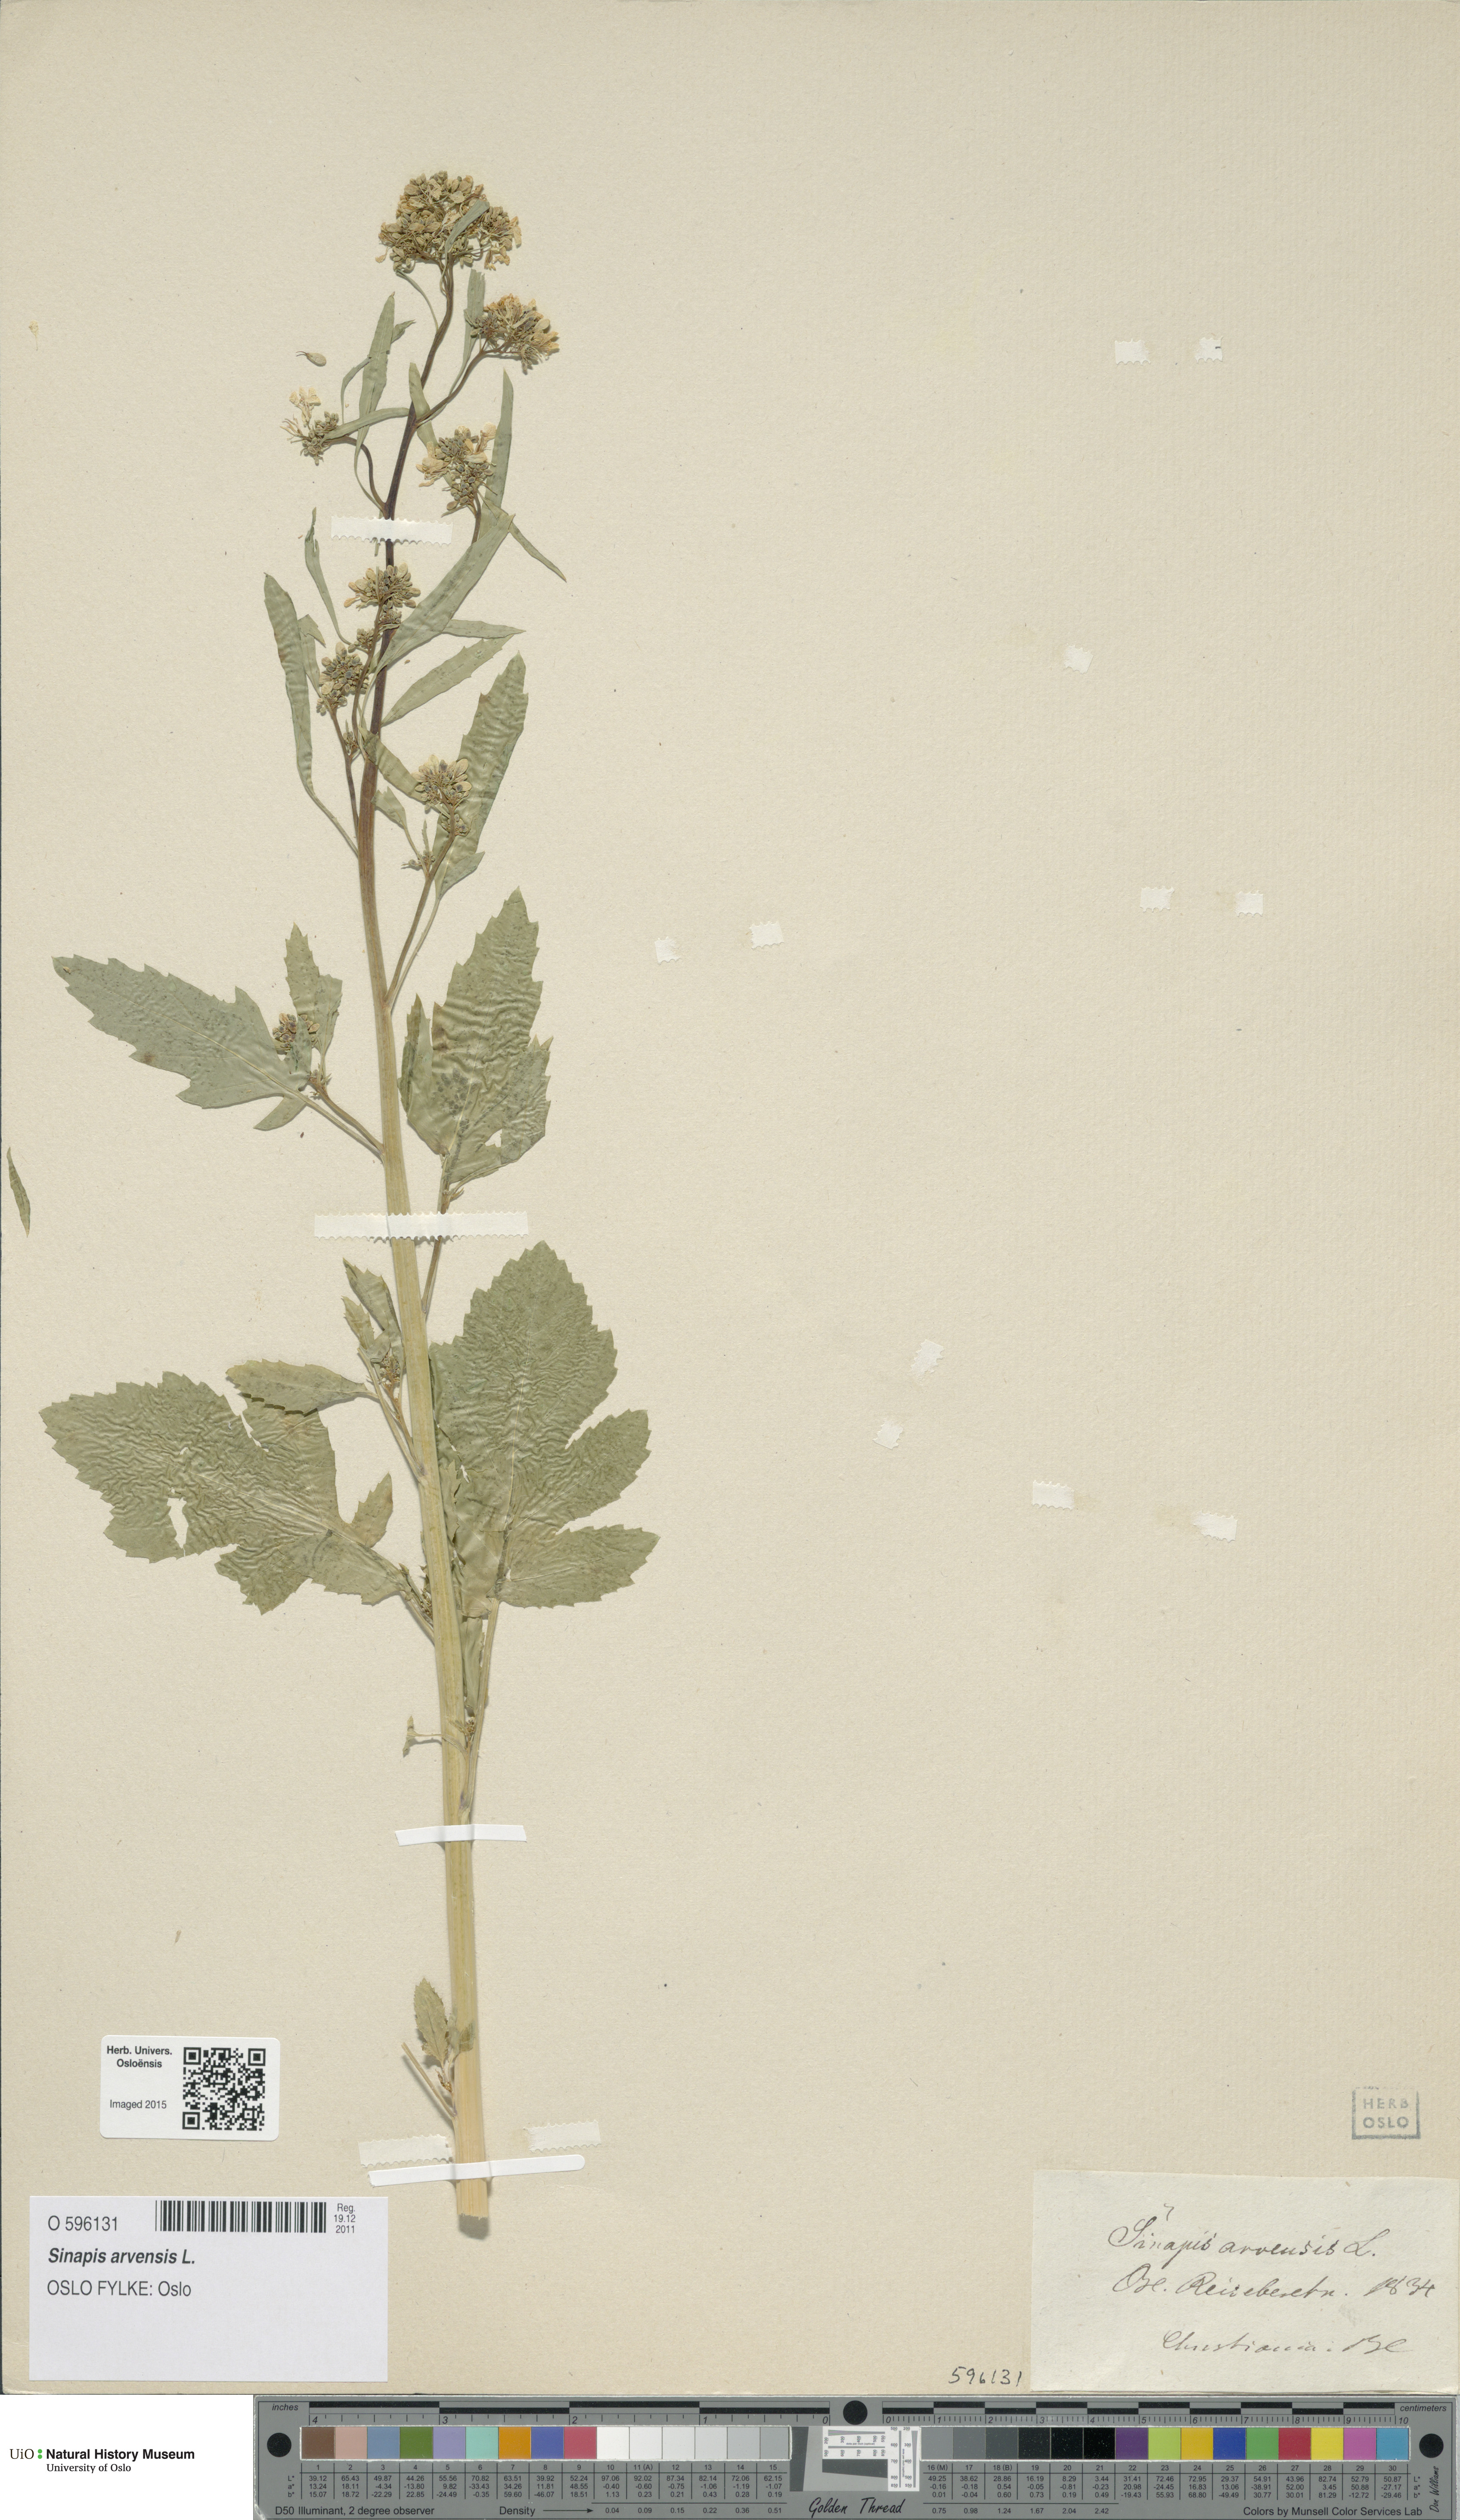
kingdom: Plantae
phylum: Tracheophyta
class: Magnoliopsida
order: Brassicales
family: Brassicaceae
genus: Sinapis
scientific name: Sinapis arvensis
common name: Charlock
